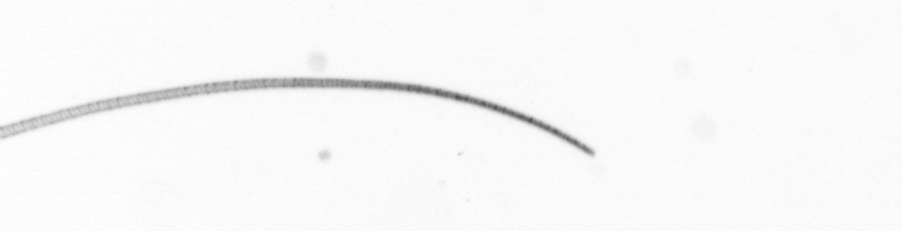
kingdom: Chromista
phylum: Ochrophyta
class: Bacillariophyceae
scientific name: Bacillariophyceae
